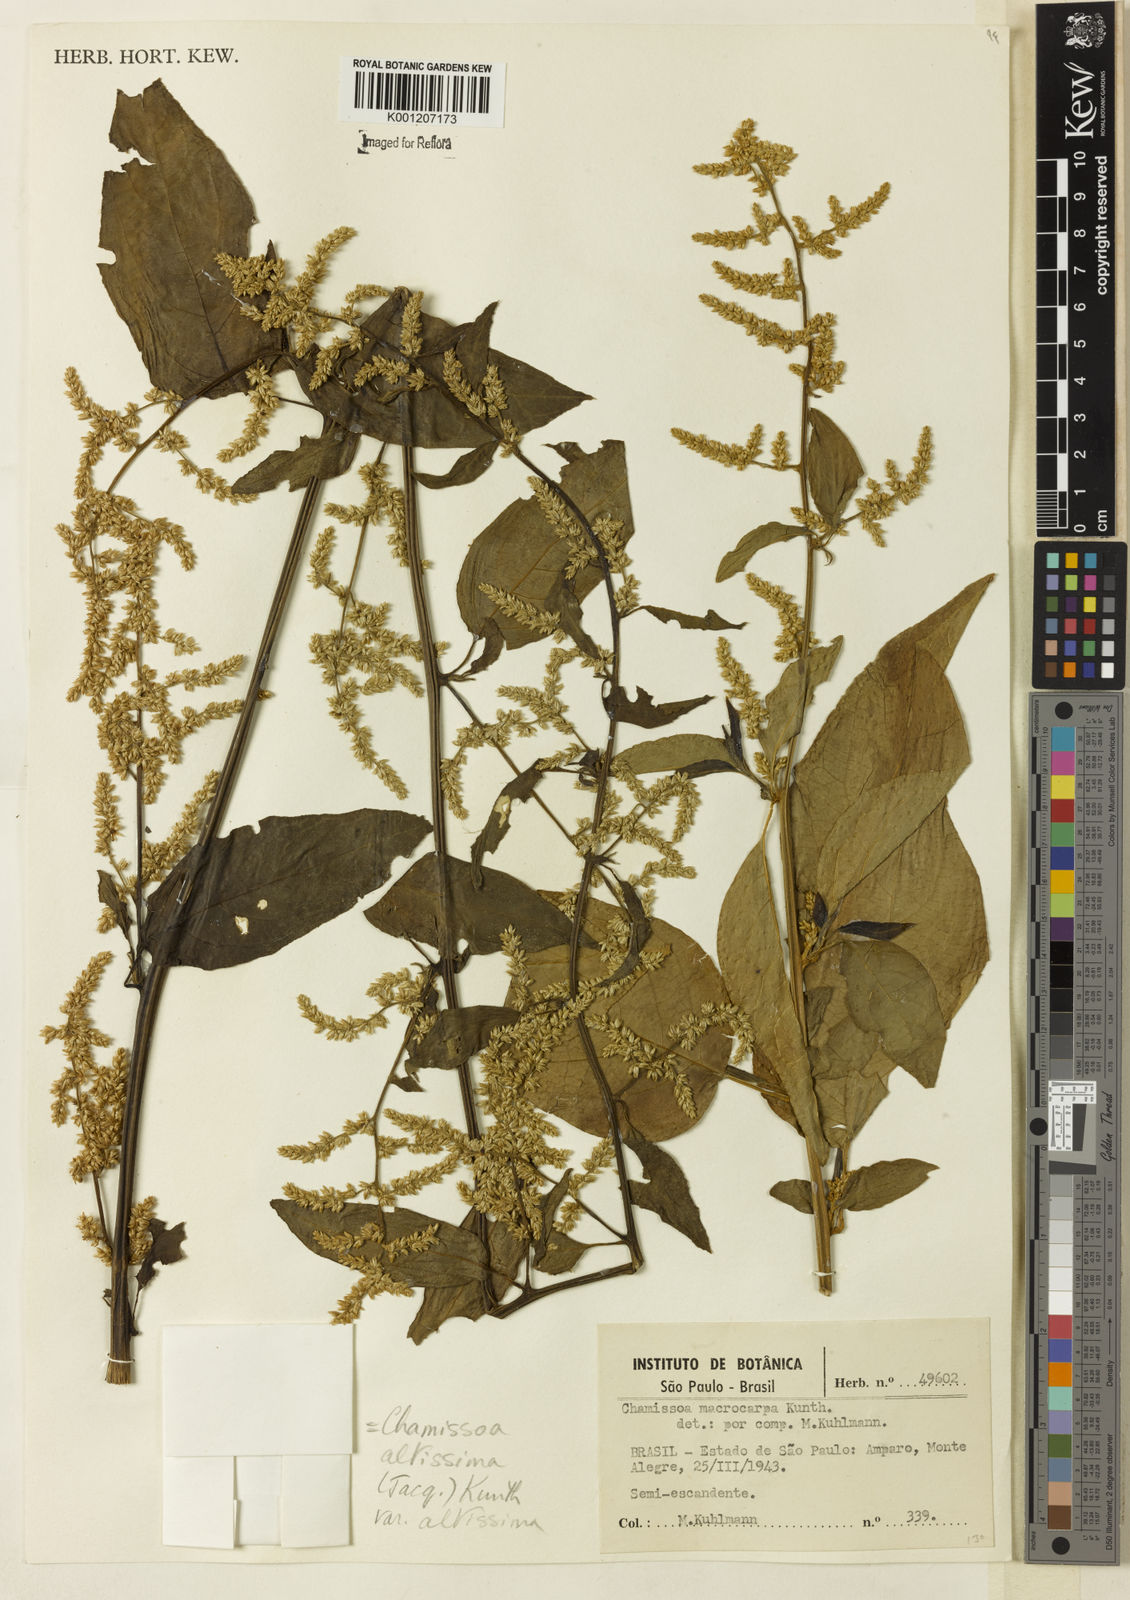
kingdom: Plantae
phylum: Tracheophyta
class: Magnoliopsida
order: Caryophyllales
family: Amaranthaceae
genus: Chamissoa
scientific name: Chamissoa altissima
